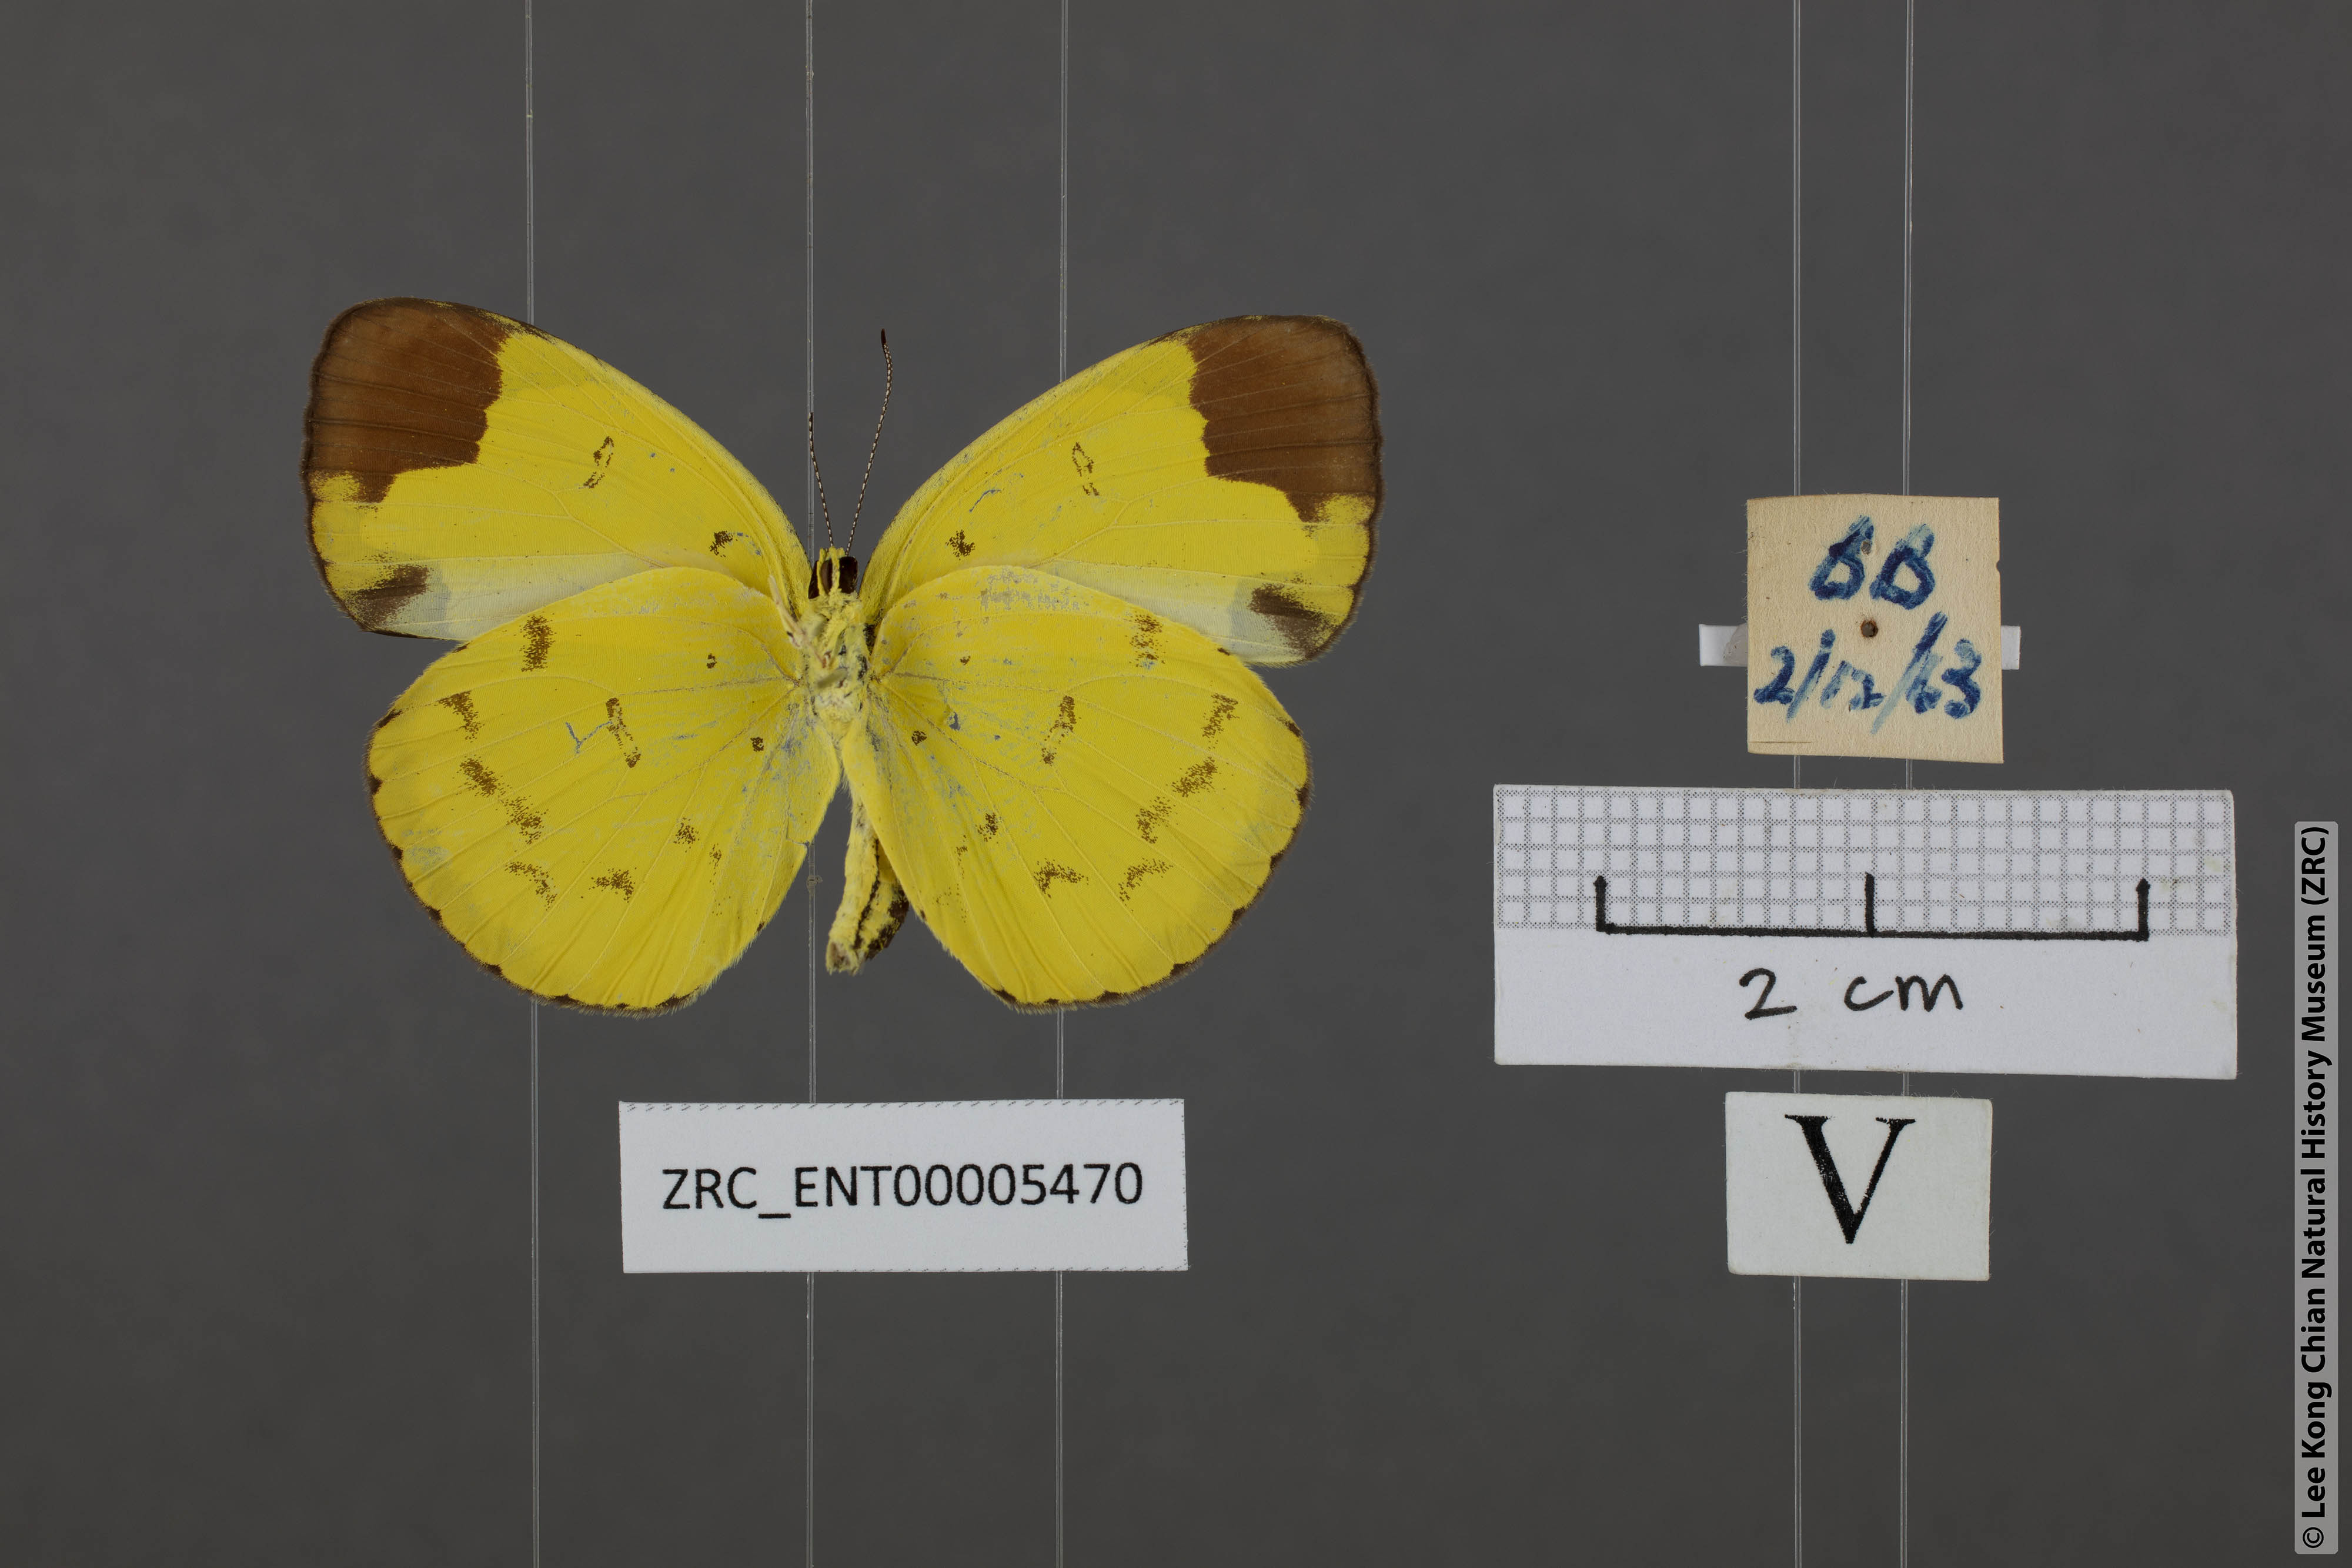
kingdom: Animalia
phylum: Arthropoda
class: Insecta
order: Lepidoptera
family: Pieridae
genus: Eurema
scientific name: Eurema sari
